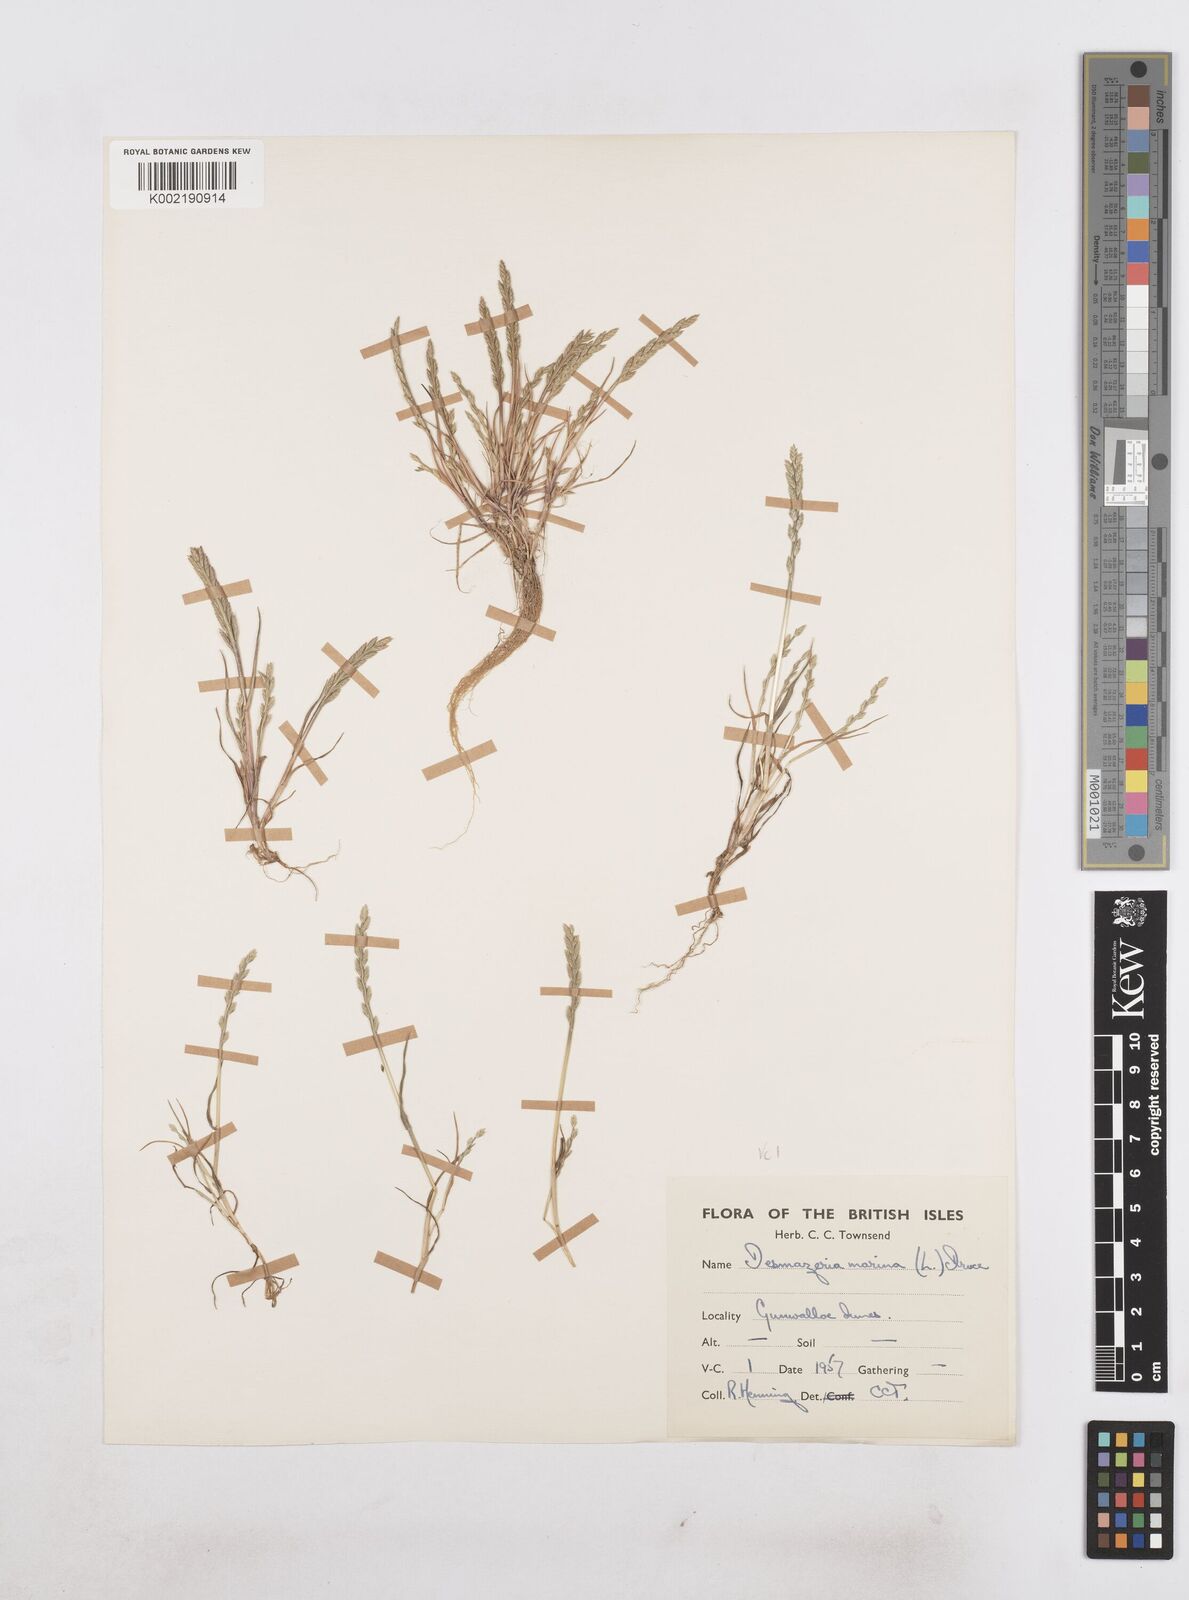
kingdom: Plantae
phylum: Tracheophyta
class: Liliopsida
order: Poales
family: Poaceae
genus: Catapodium
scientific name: Catapodium marinum
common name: Sea fern-grass
